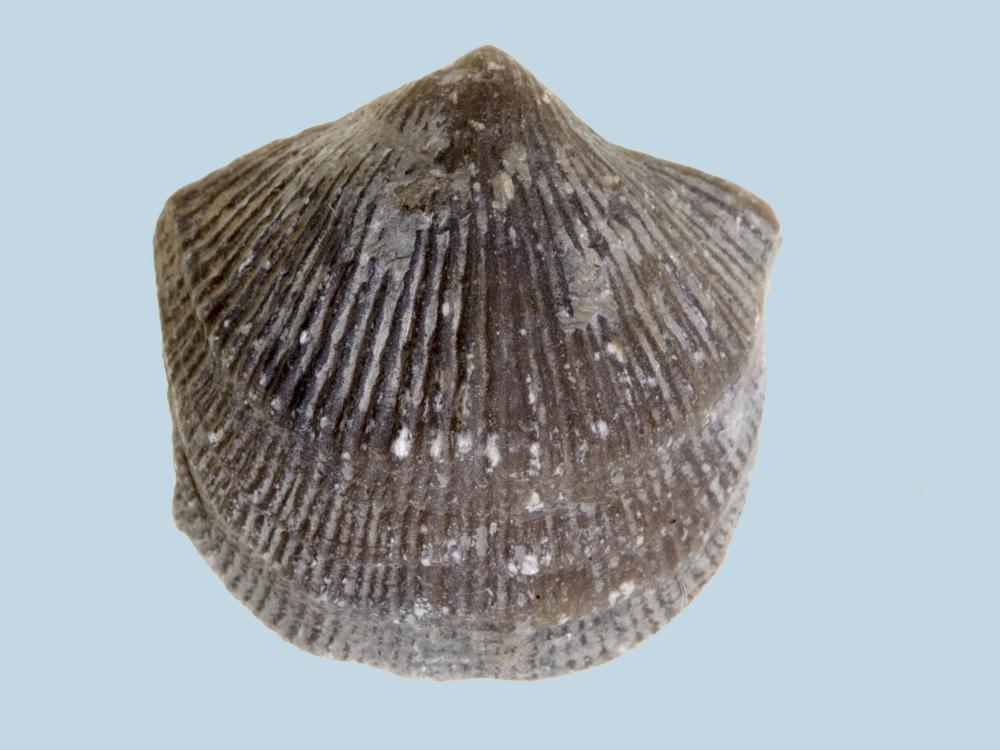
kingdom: Animalia
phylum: Brachiopoda
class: Rhynchonellata
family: Clitambonitidae
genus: Vellamo
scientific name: Vellamo Orthis verneuili
